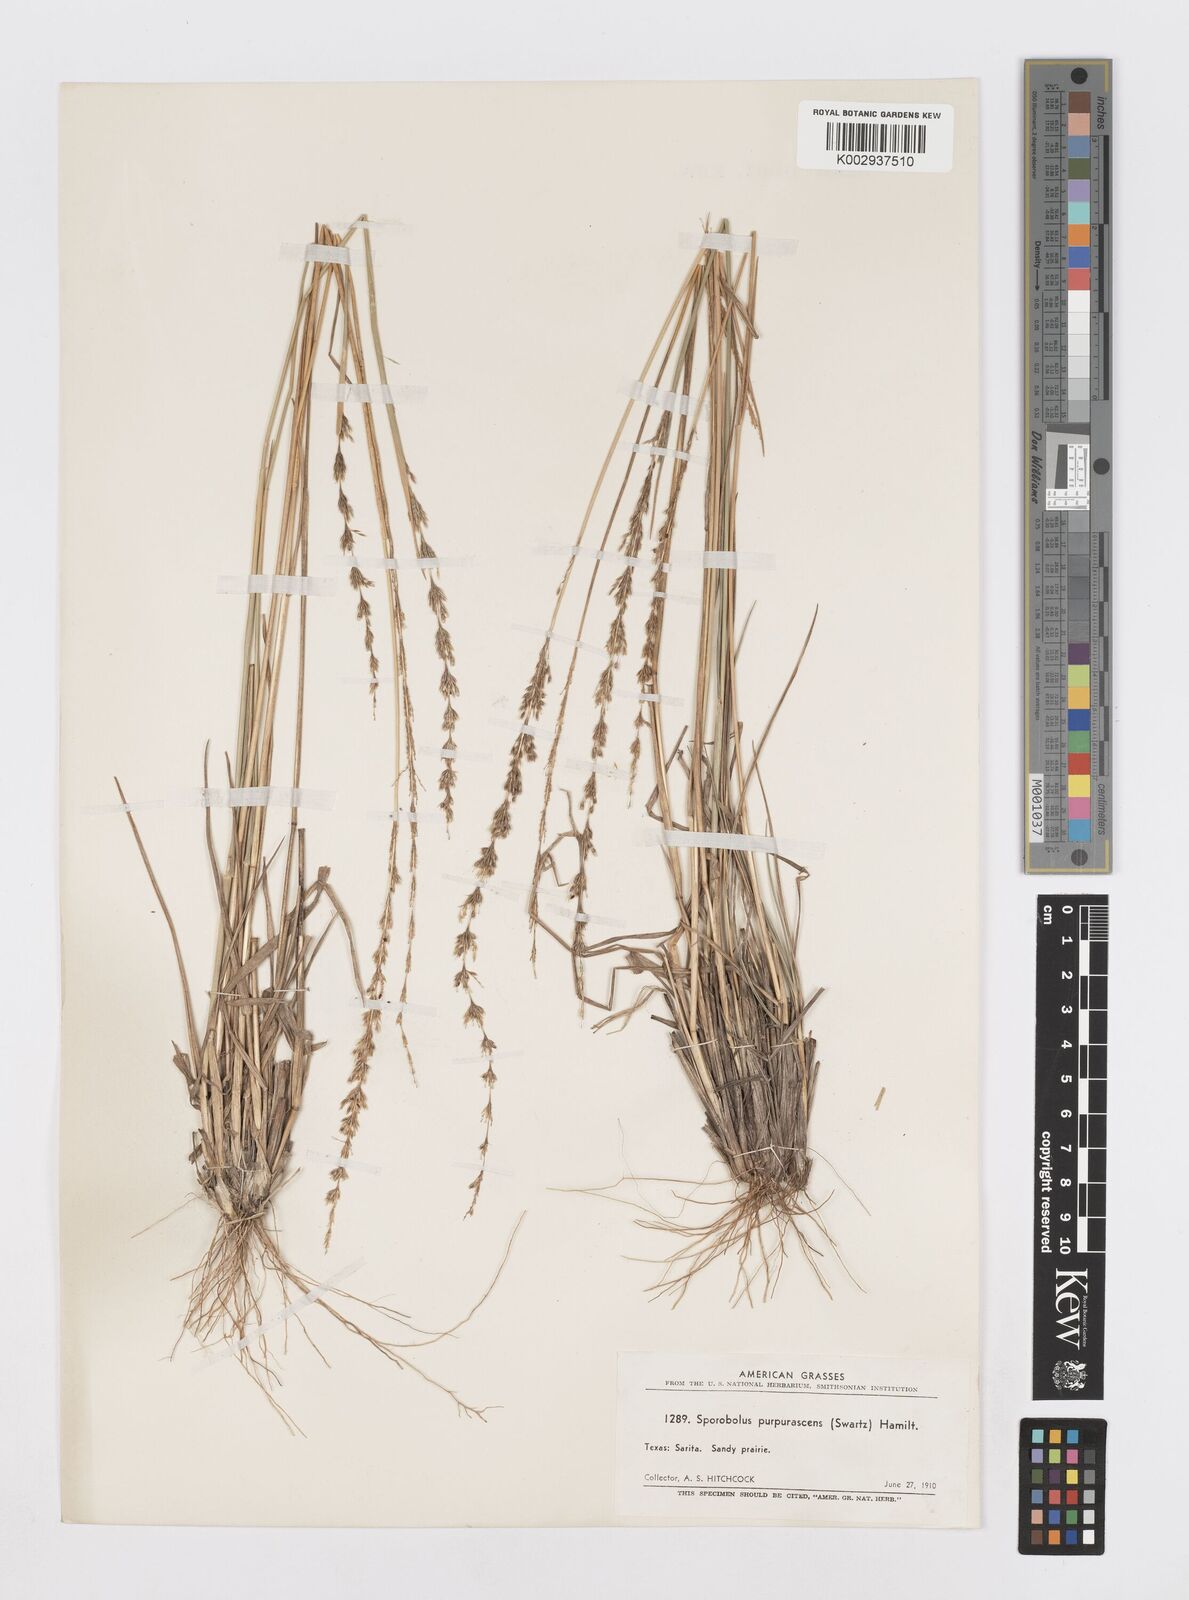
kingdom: Plantae
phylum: Tracheophyta
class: Liliopsida
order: Poales
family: Poaceae
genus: Sporobolus
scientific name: Sporobolus purpurascens
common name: Purple dropseed
